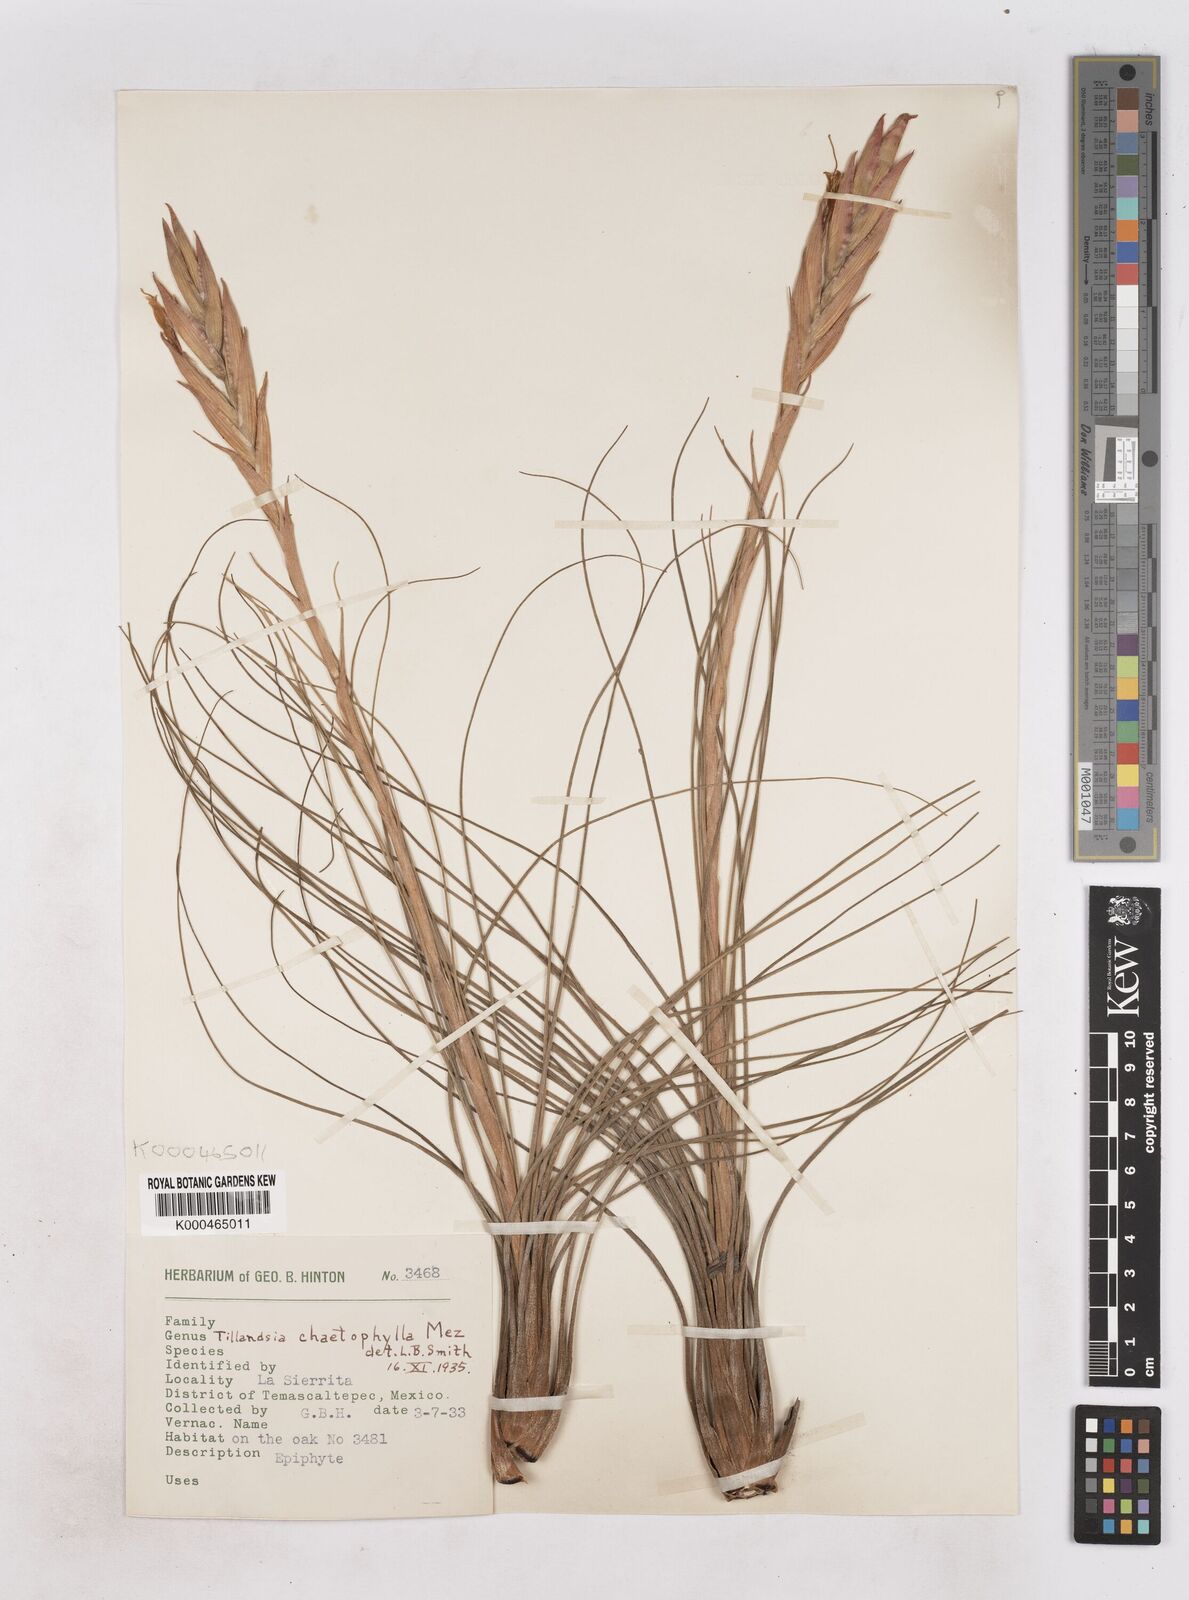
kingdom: Plantae
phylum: Tracheophyta
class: Liliopsida
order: Poales
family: Bromeliaceae
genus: Tillandsia
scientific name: Tillandsia chaetophylla
